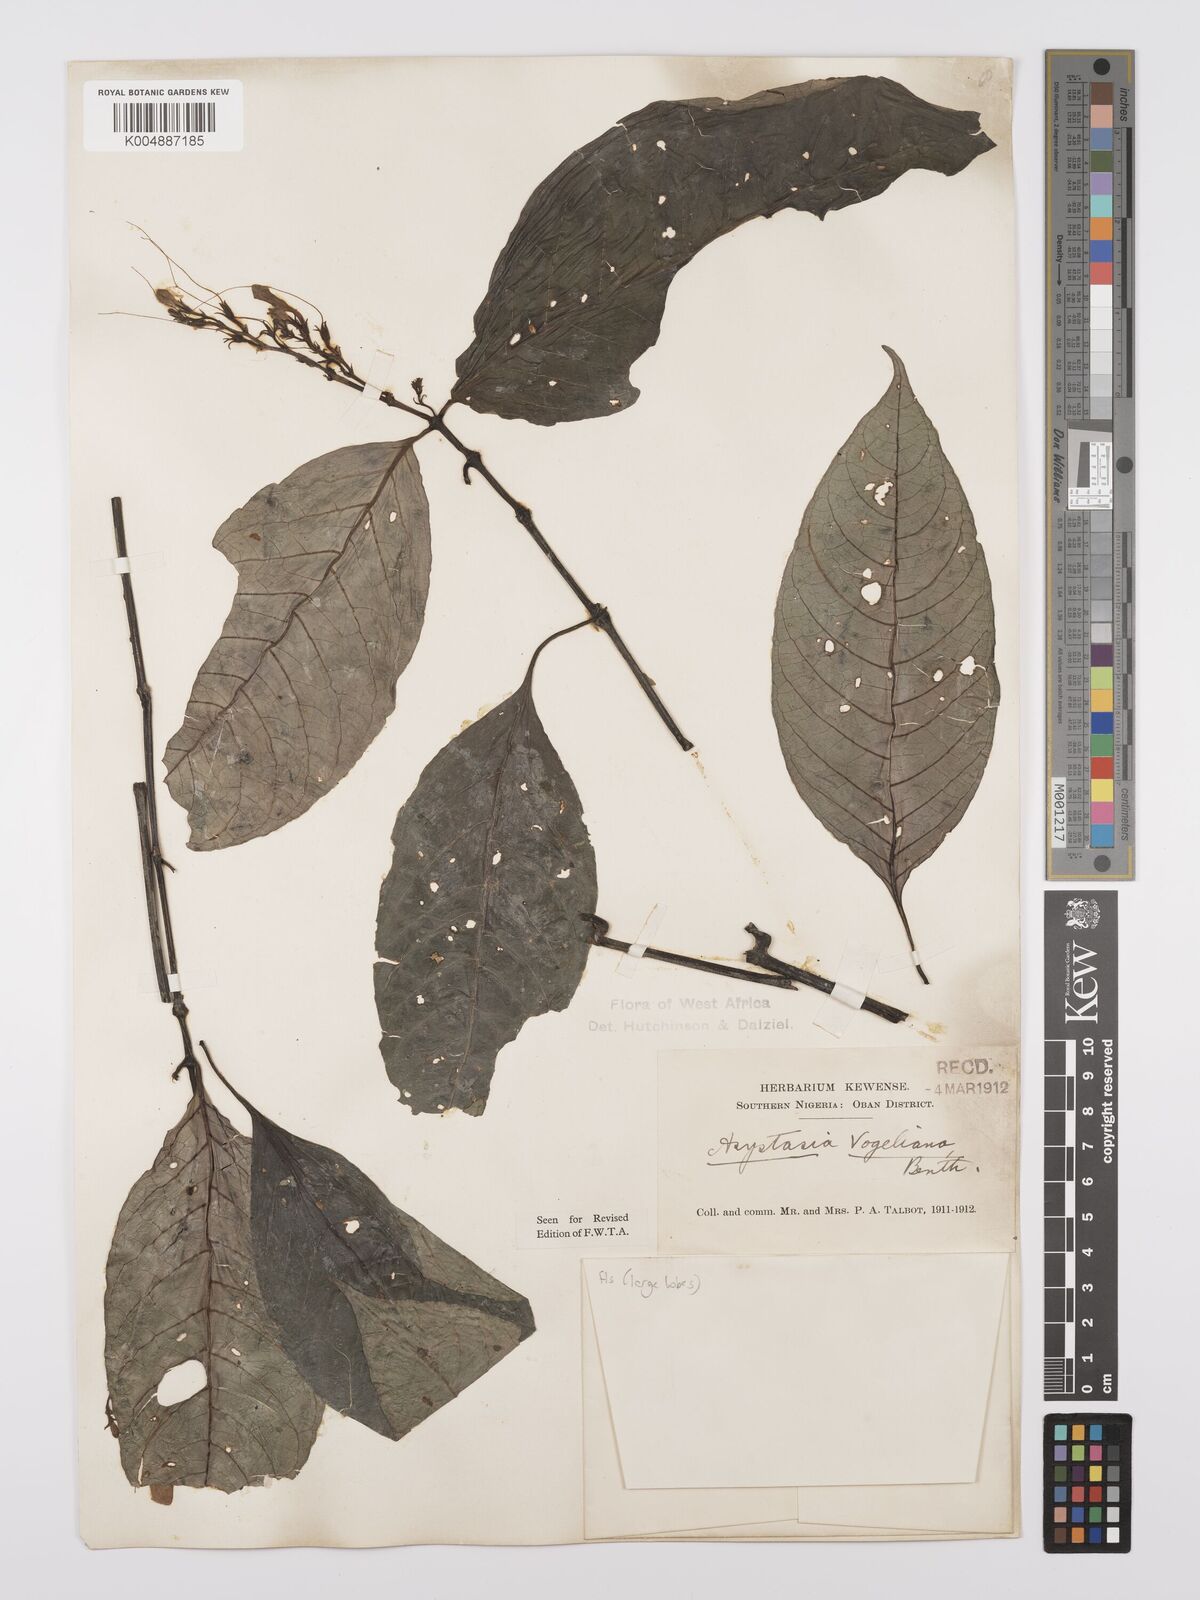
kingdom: Plantae
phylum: Tracheophyta
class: Magnoliopsida
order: Lamiales
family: Acanthaceae
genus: Asystasia
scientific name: Asystasia vogeliana
